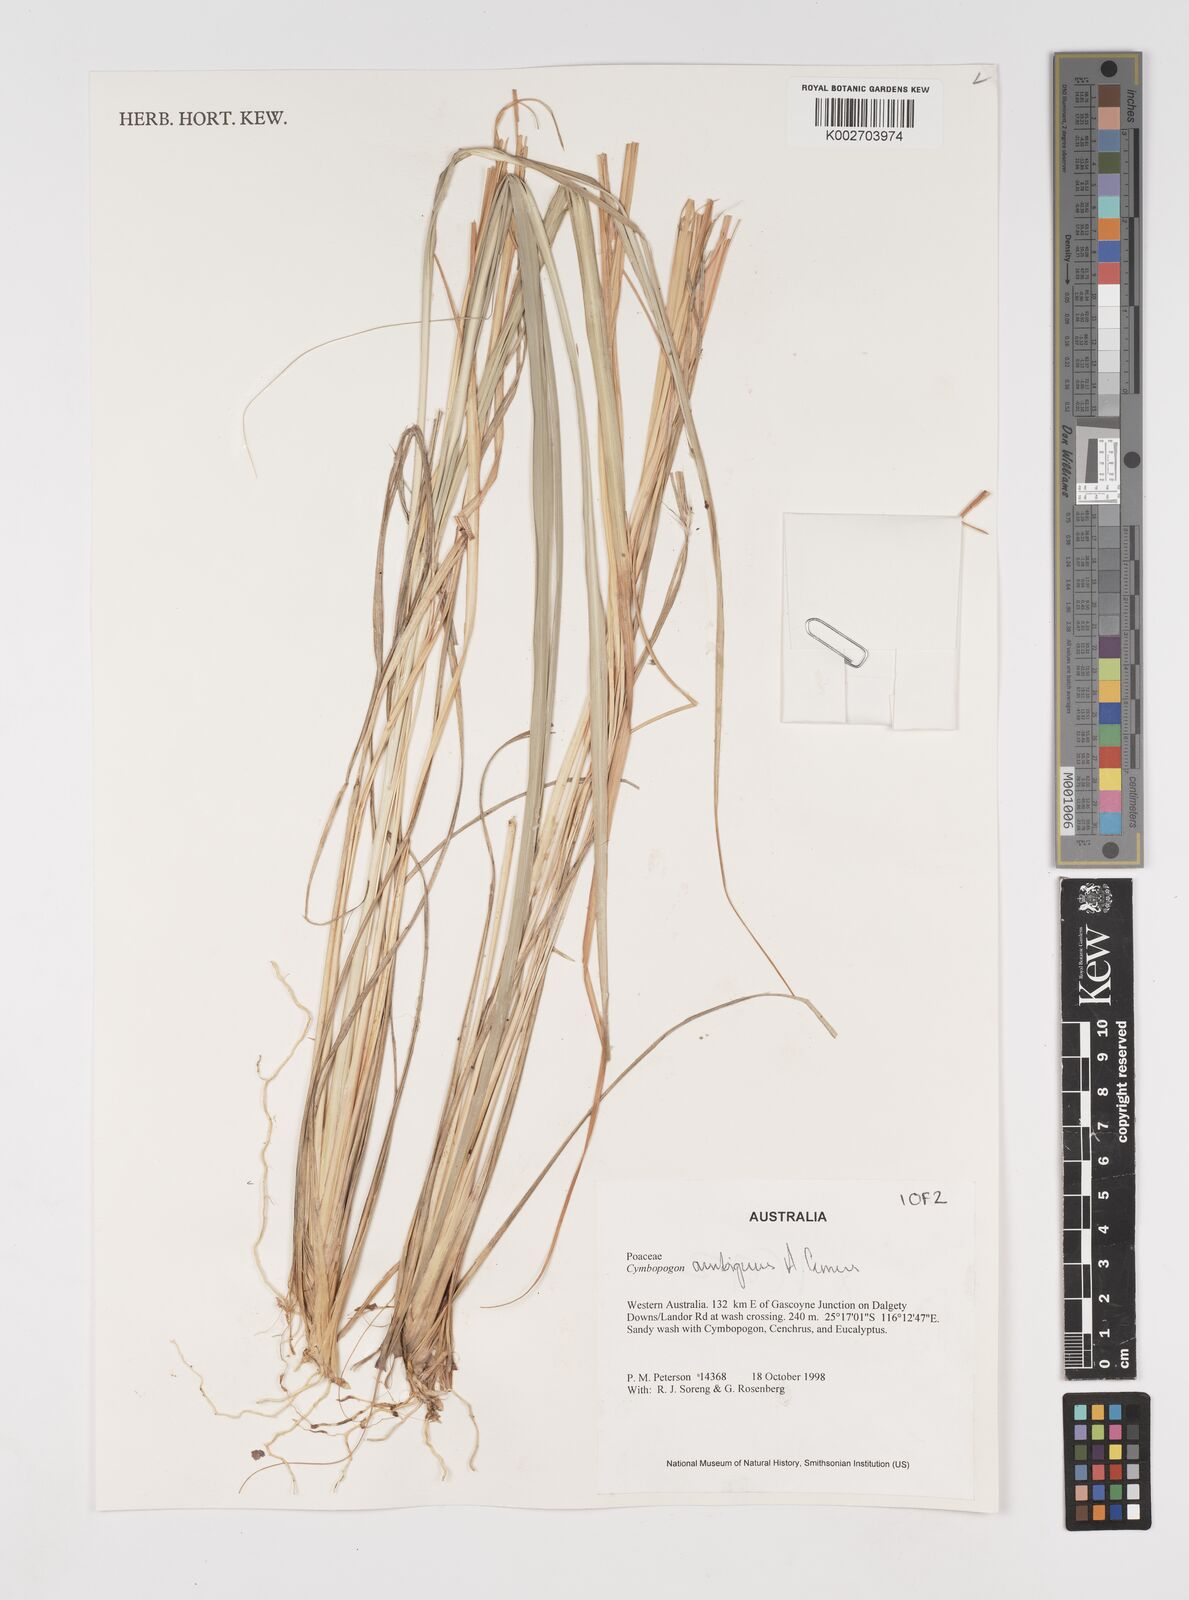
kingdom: Plantae
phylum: Tracheophyta
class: Liliopsida
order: Poales
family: Poaceae
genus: Cymbopogon
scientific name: Cymbopogon ambiguus
